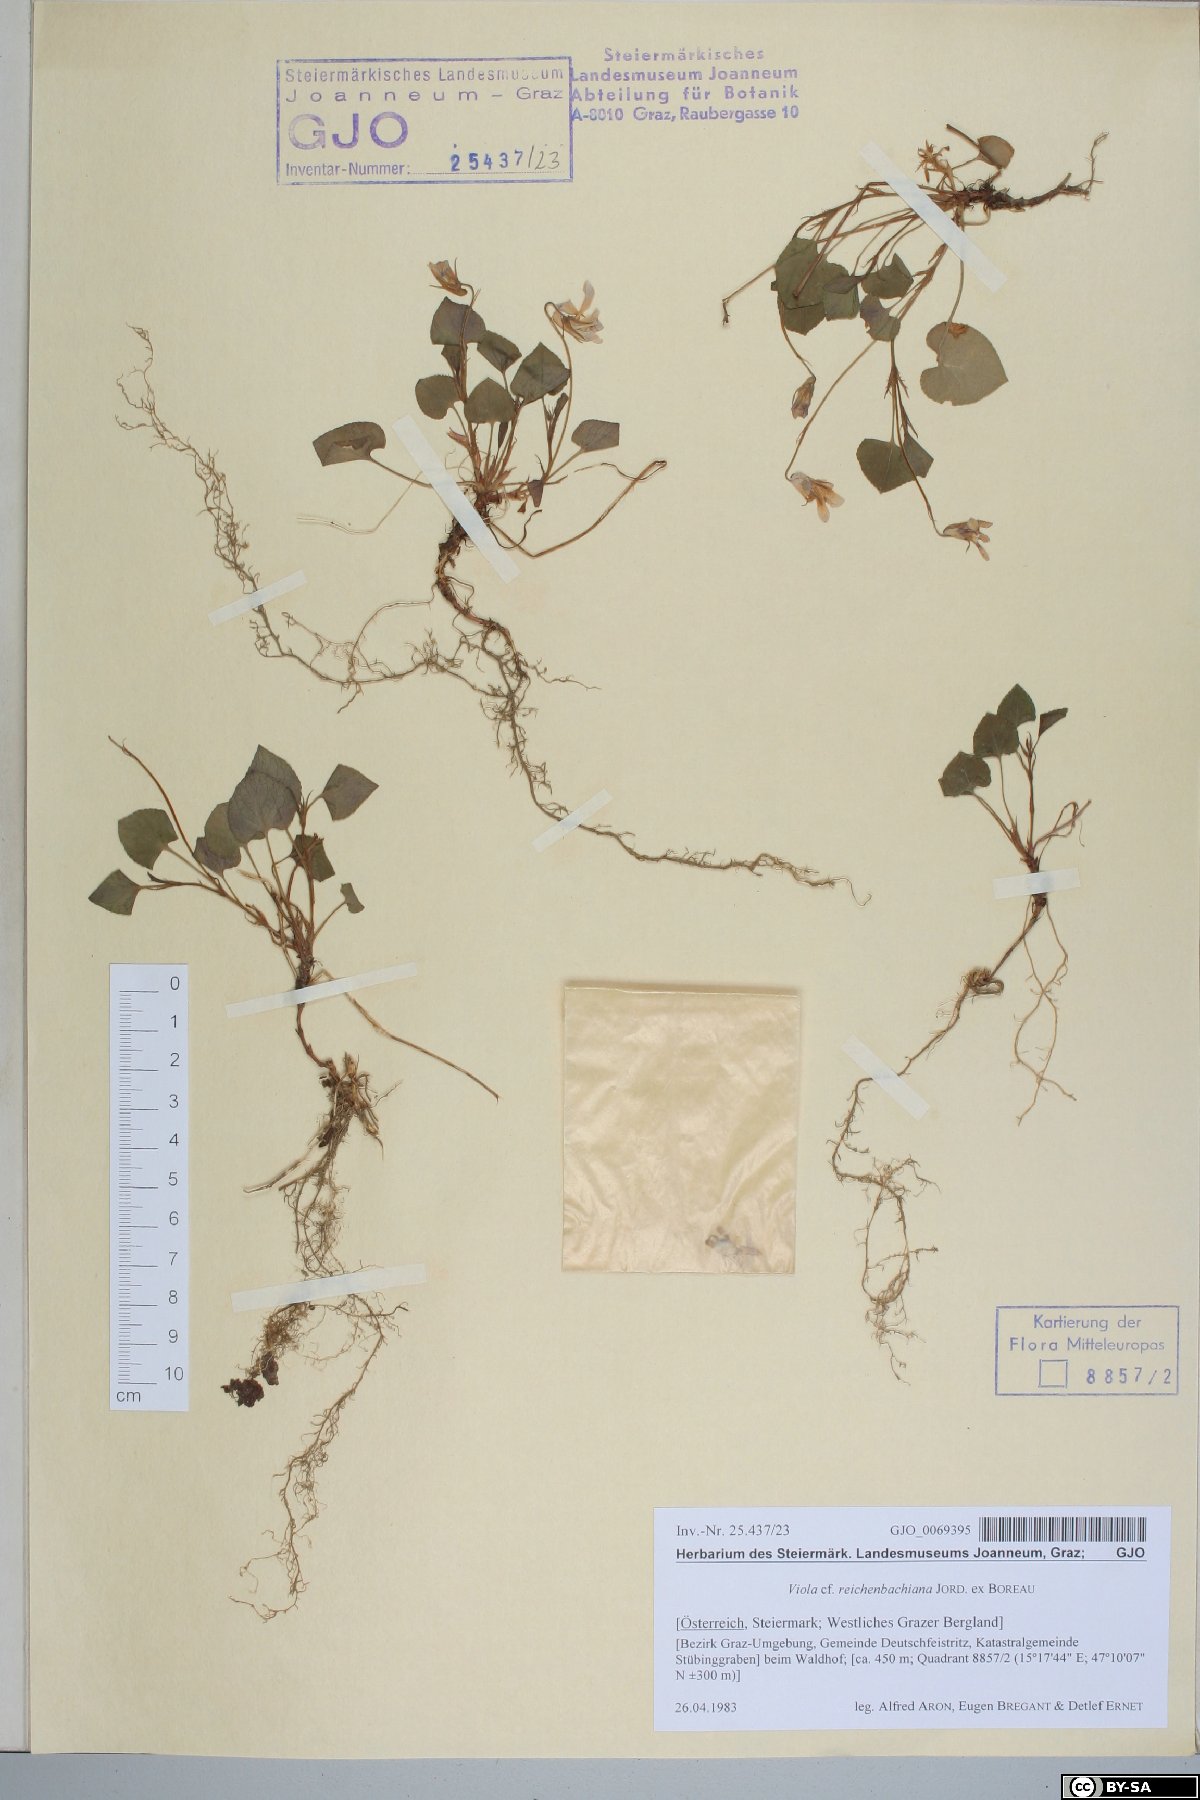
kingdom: Plantae
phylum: Tracheophyta
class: Magnoliopsida
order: Malpighiales
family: Violaceae
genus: Viola
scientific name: Viola reichenbachiana
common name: Early dog-violet
